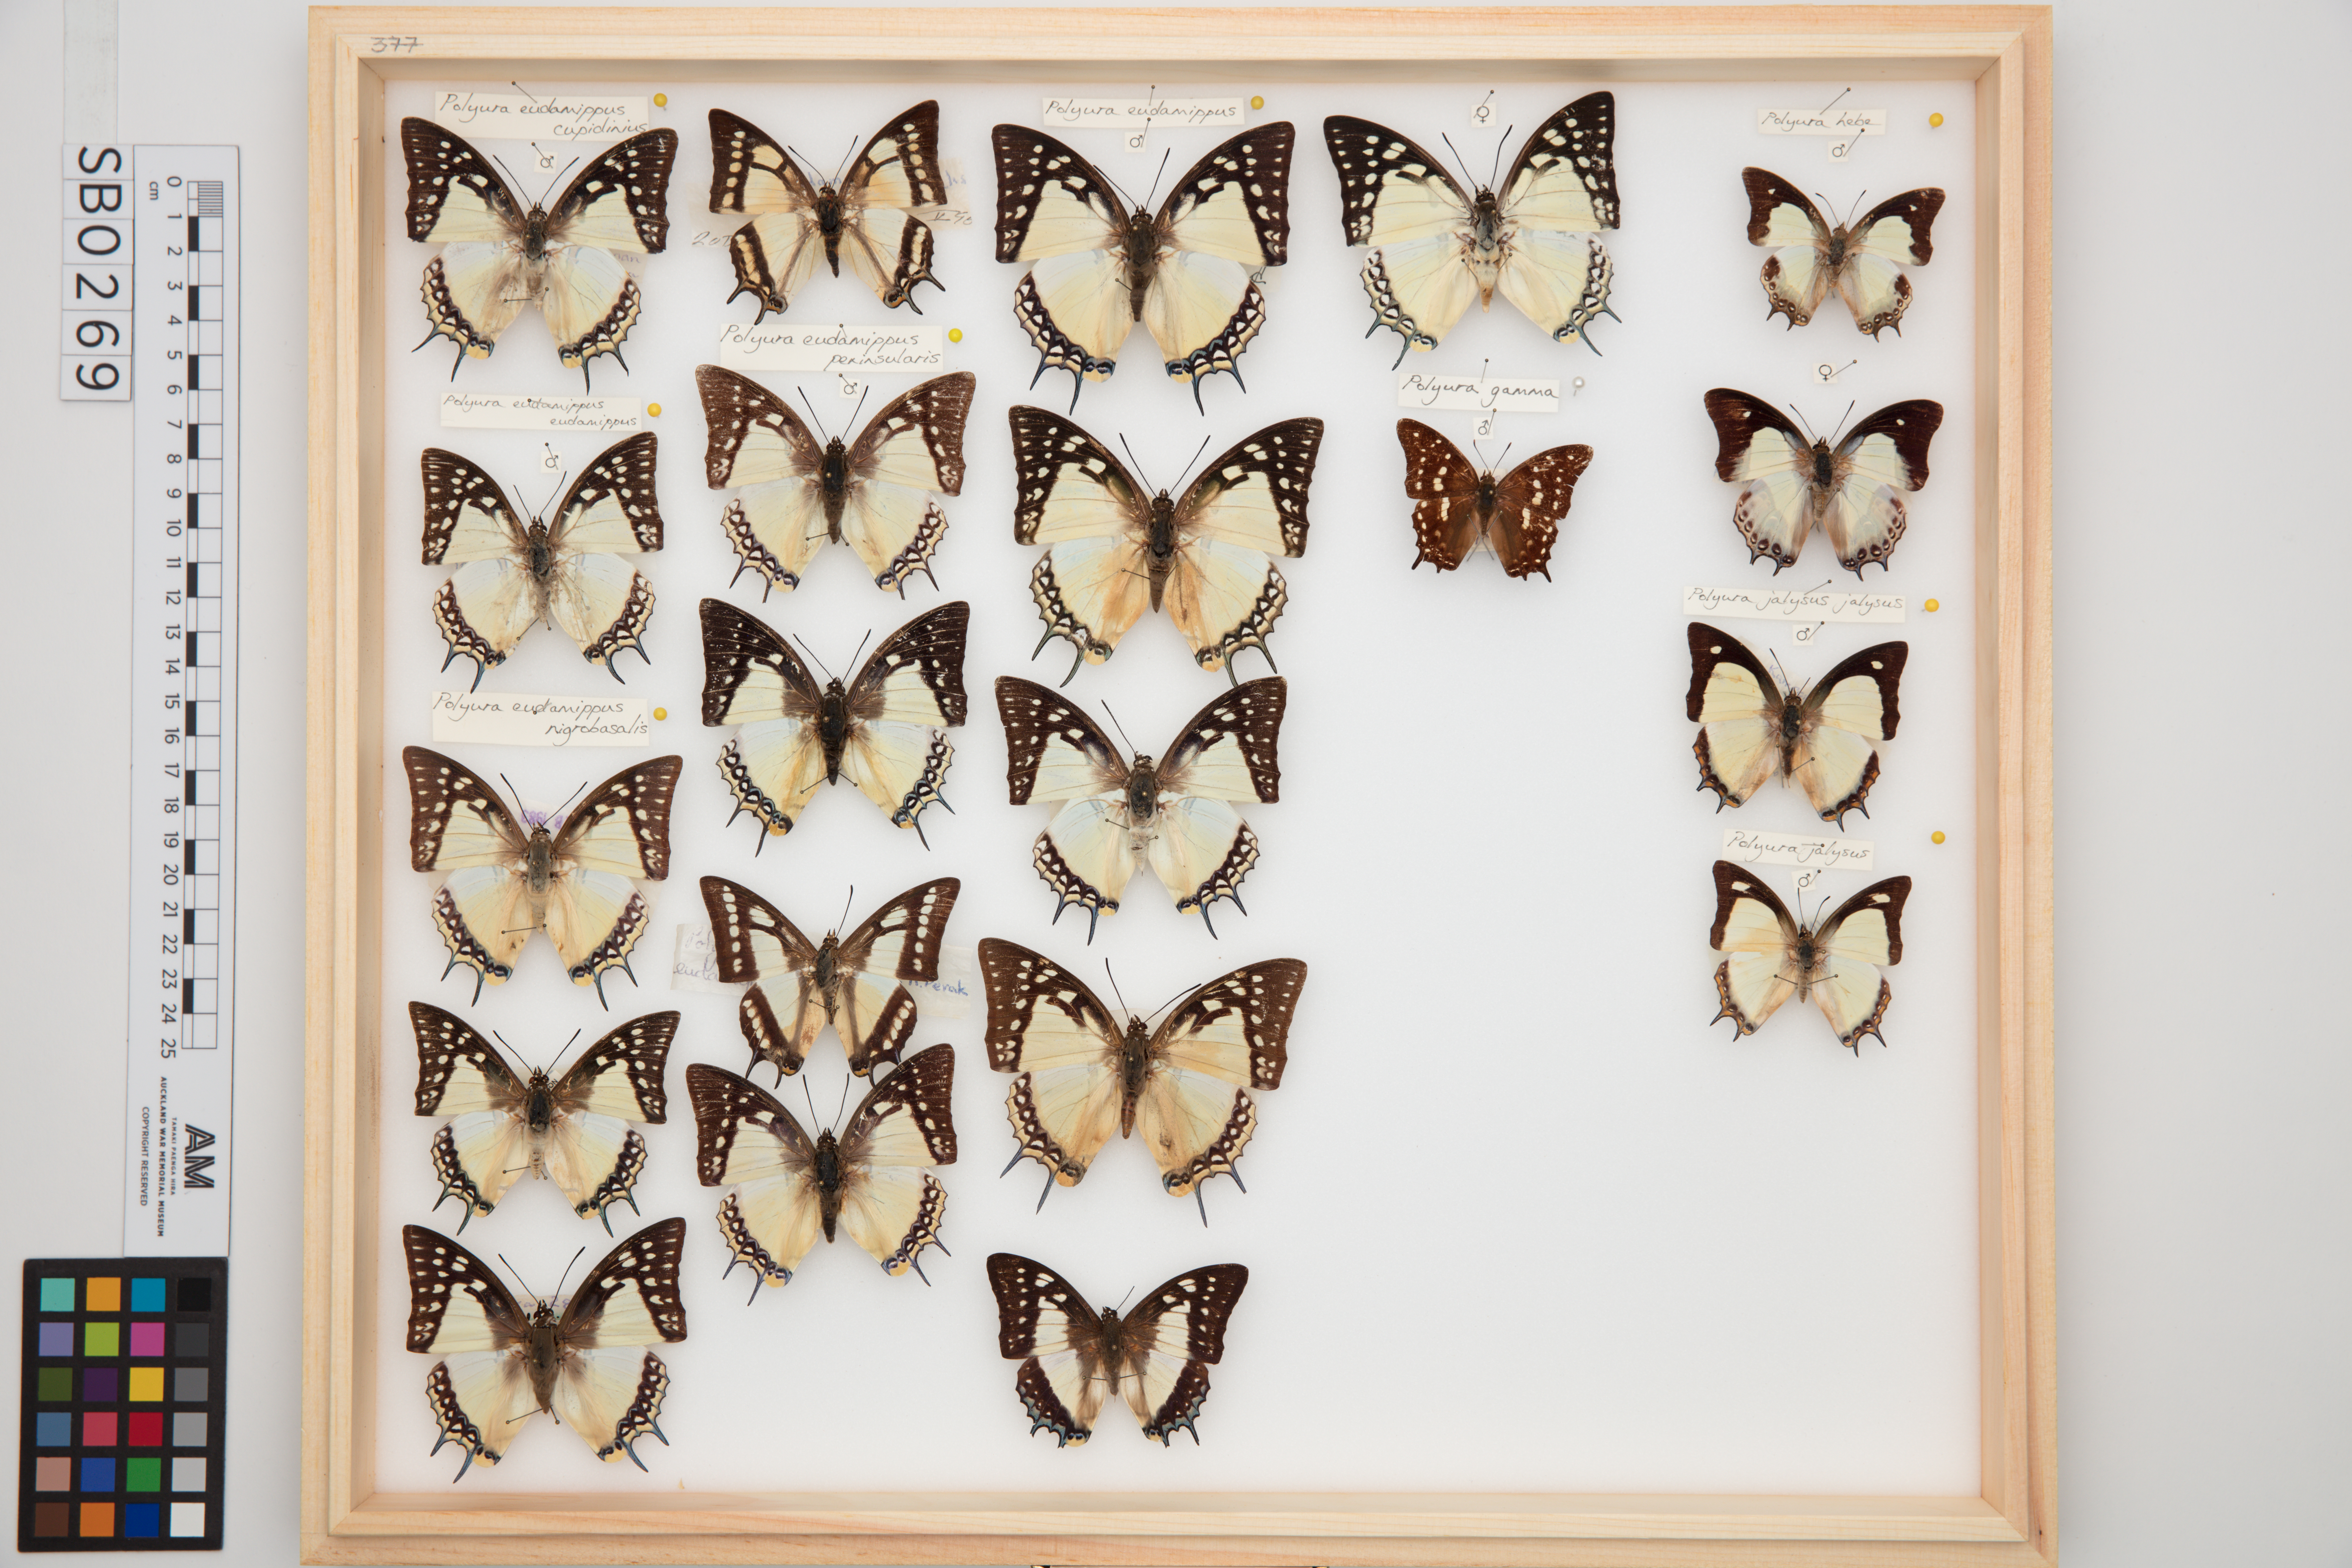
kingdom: Animalia
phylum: Arthropoda
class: Insecta
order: Lepidoptera
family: Nymphalidae
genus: Polyura
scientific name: Polyura jalysus
